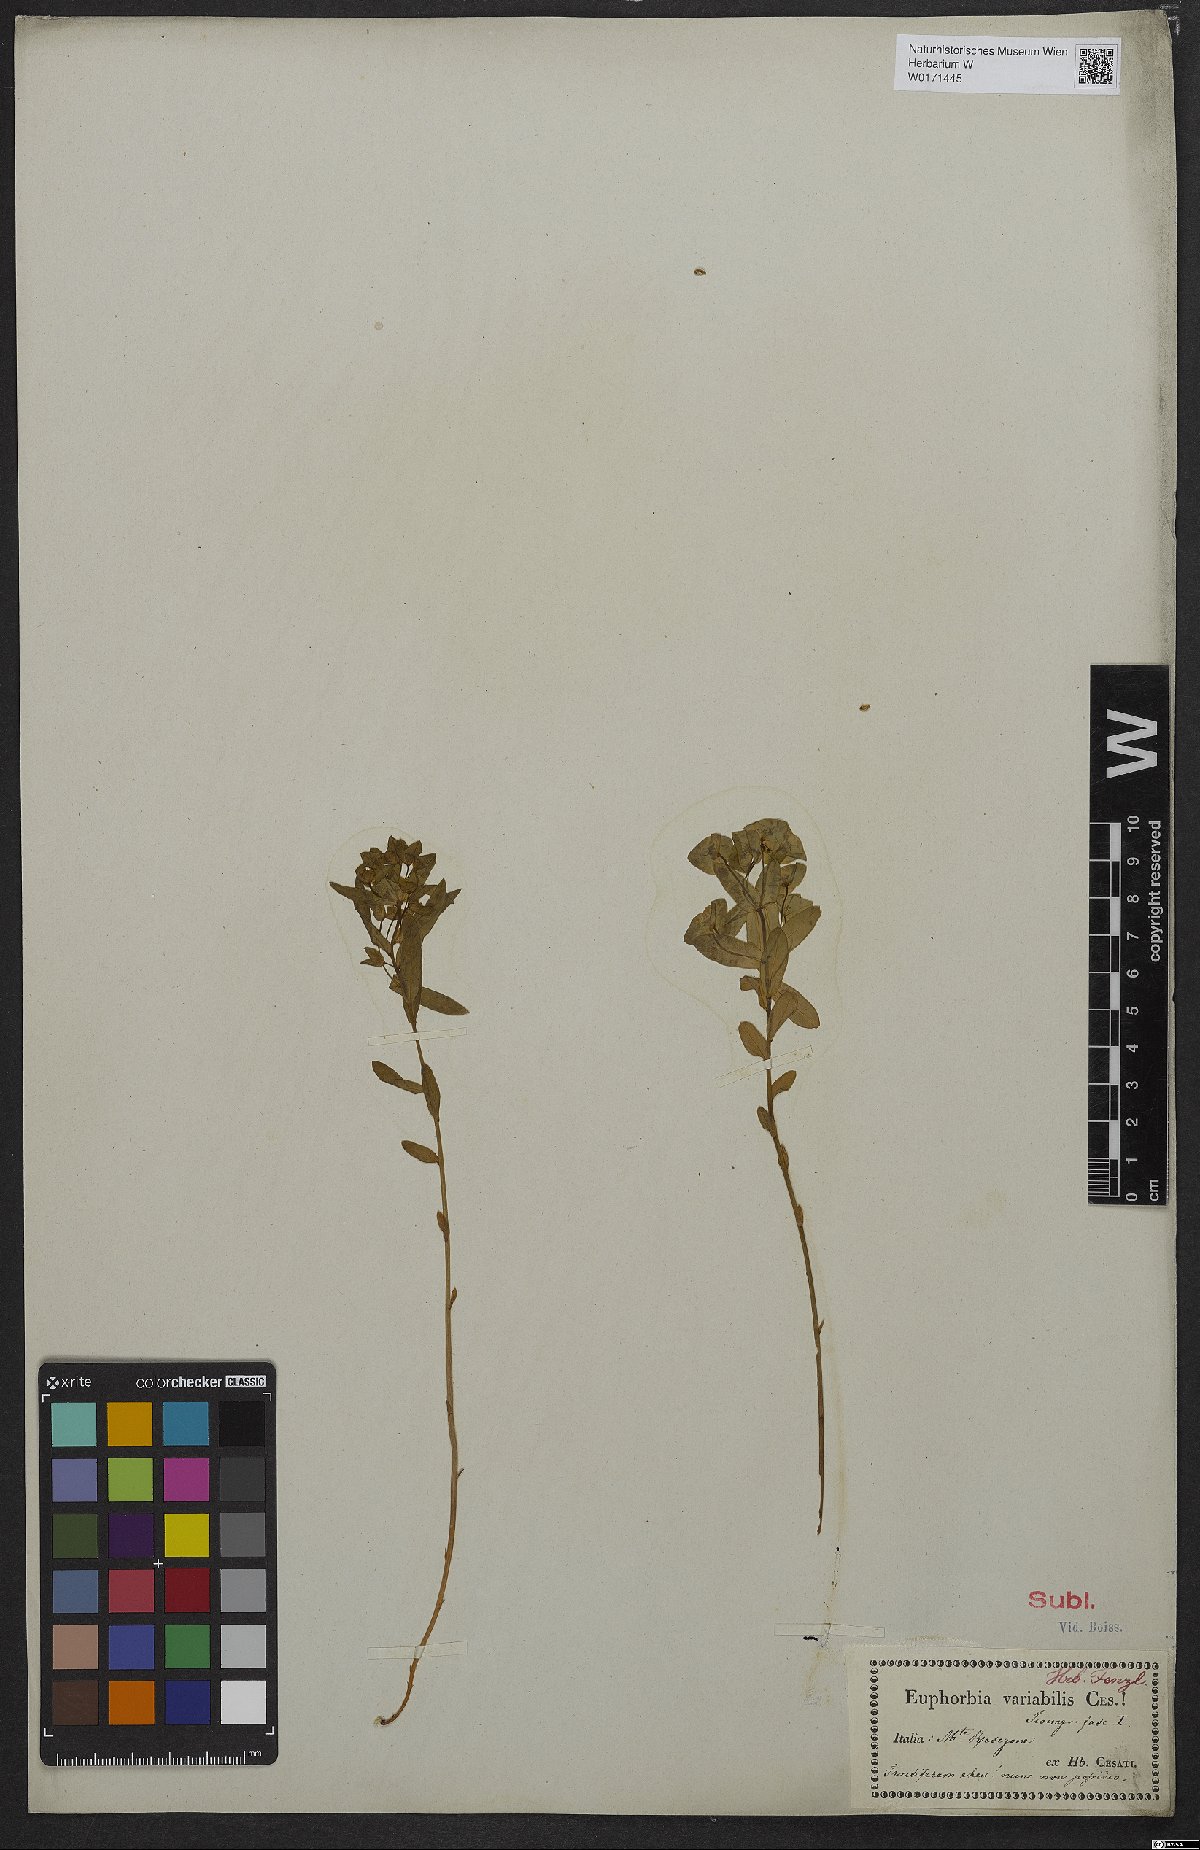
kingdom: Plantae
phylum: Tracheophyta
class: Magnoliopsida
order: Malpighiales
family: Euphorbiaceae
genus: Euphorbia
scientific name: Euphorbia variabilis
